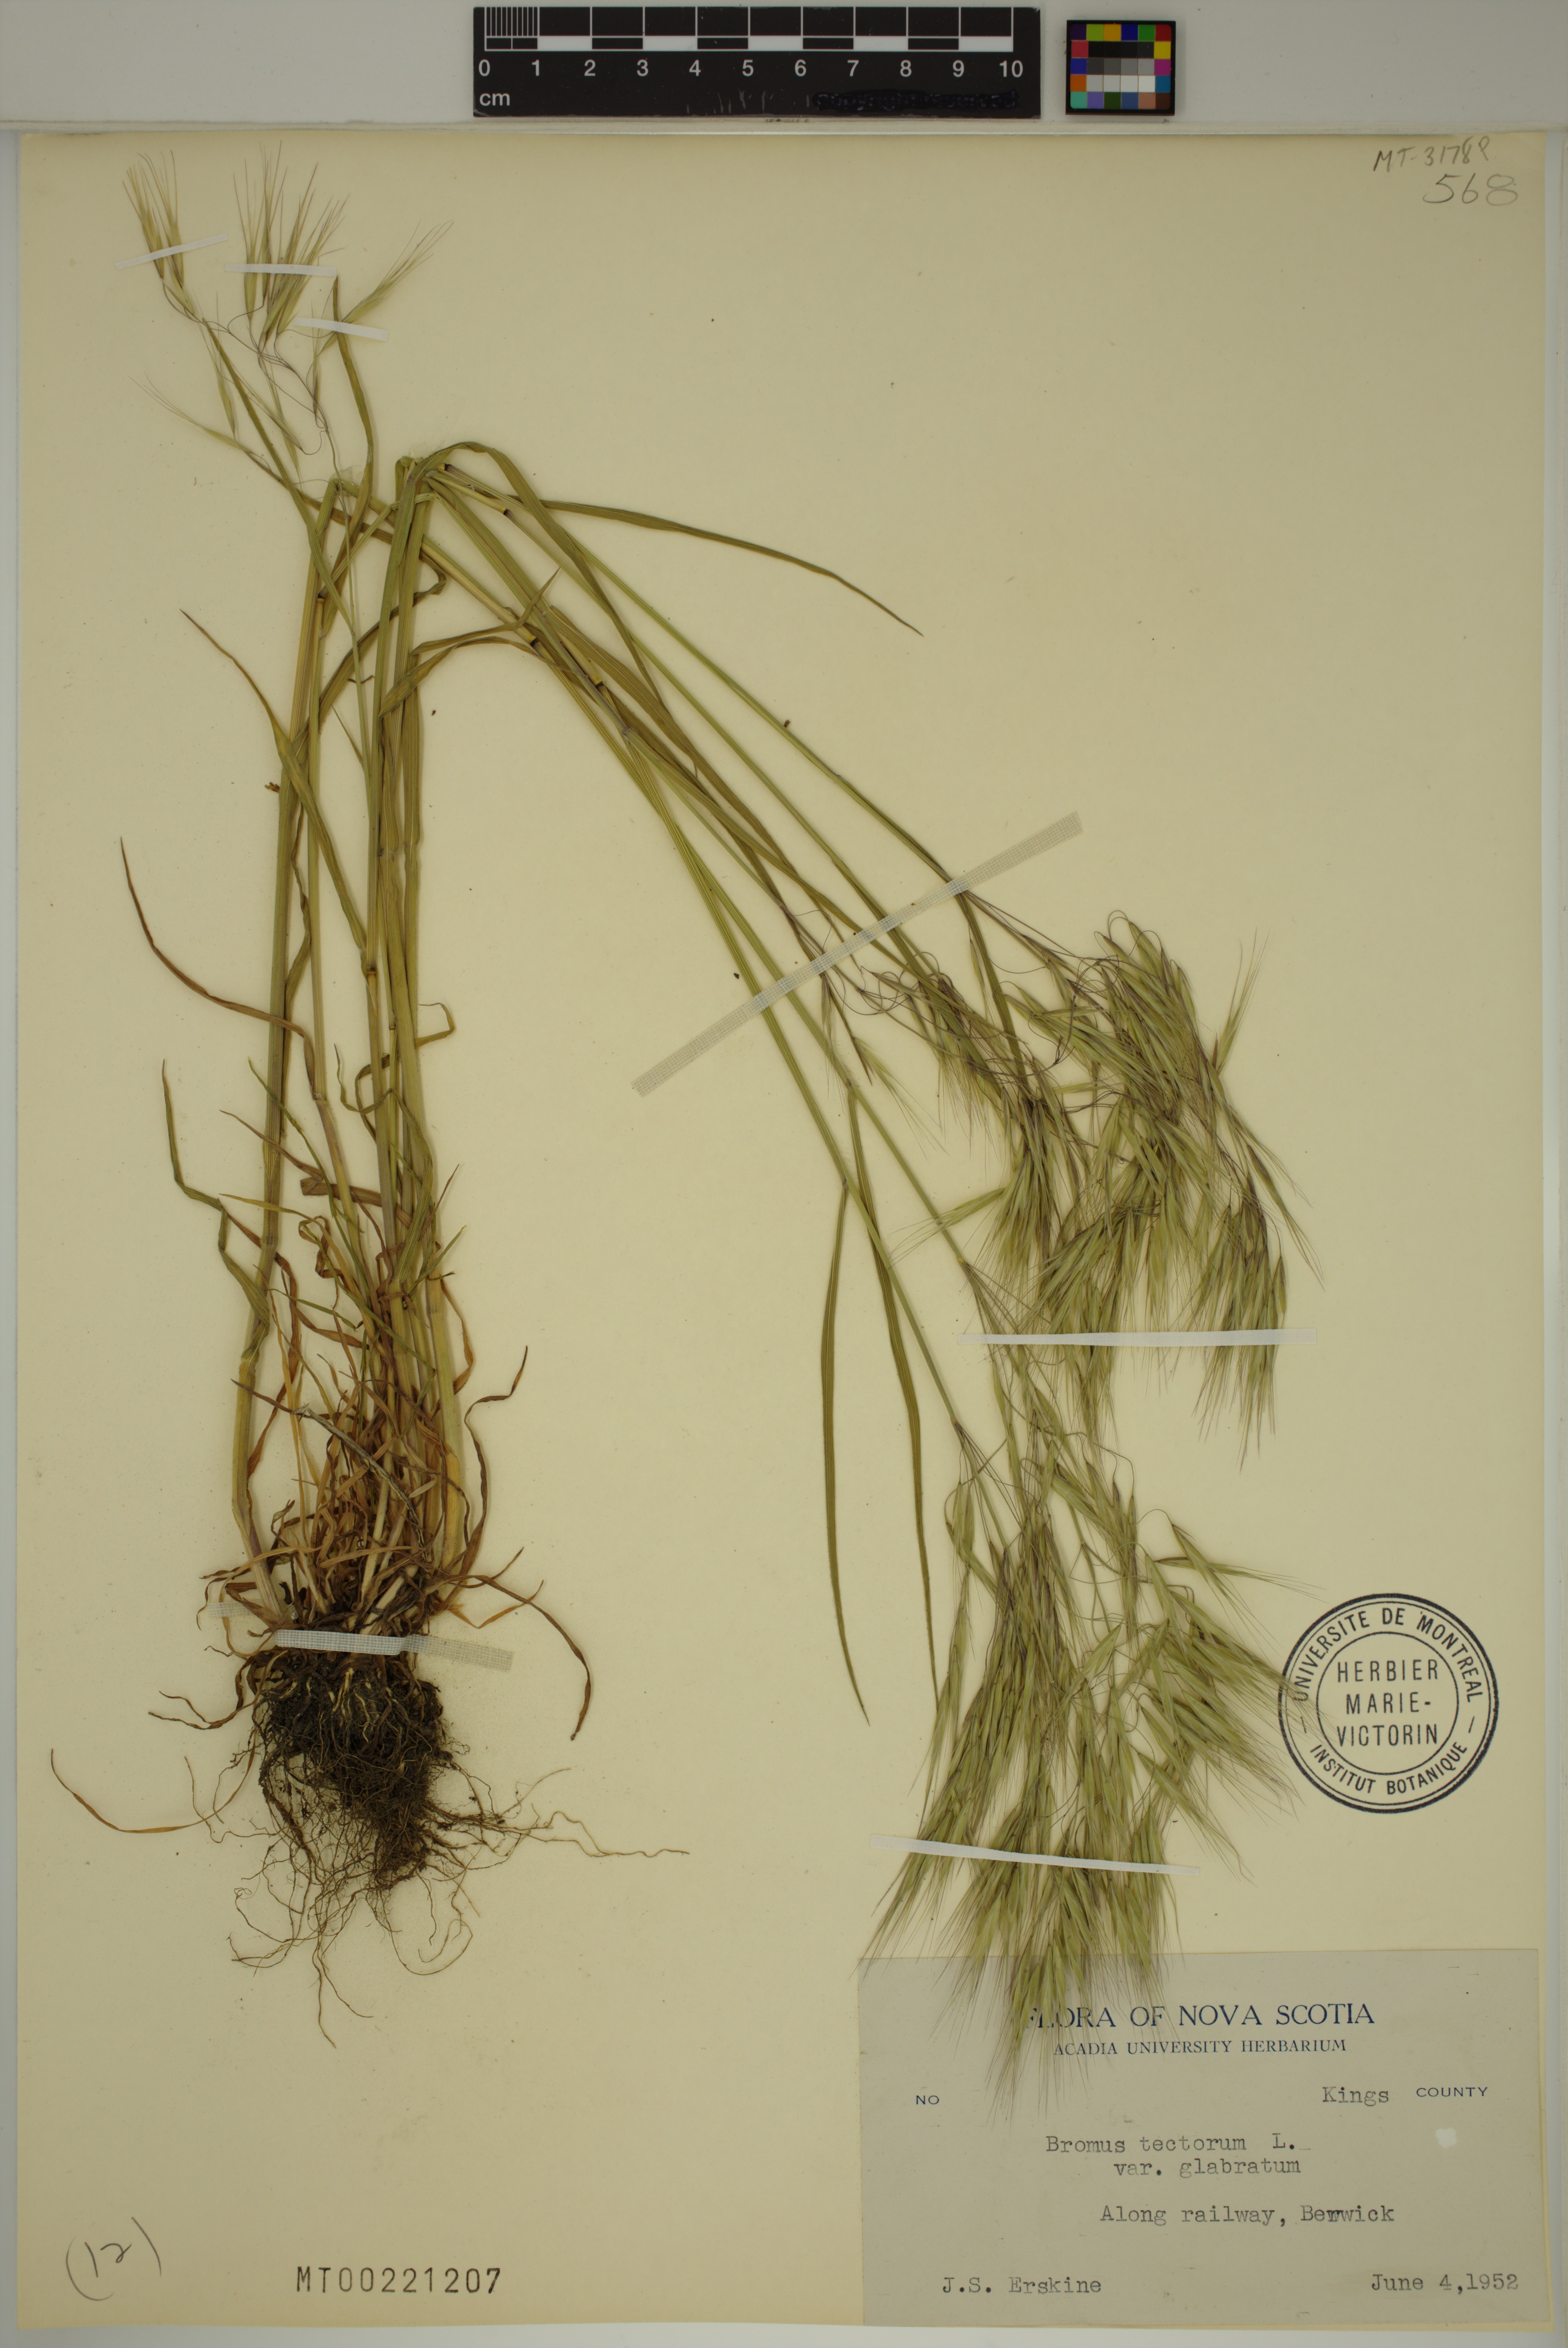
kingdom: Plantae
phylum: Tracheophyta
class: Liliopsida
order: Poales
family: Poaceae
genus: Bromus
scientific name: Bromus tectorum
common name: Cheatgrass
